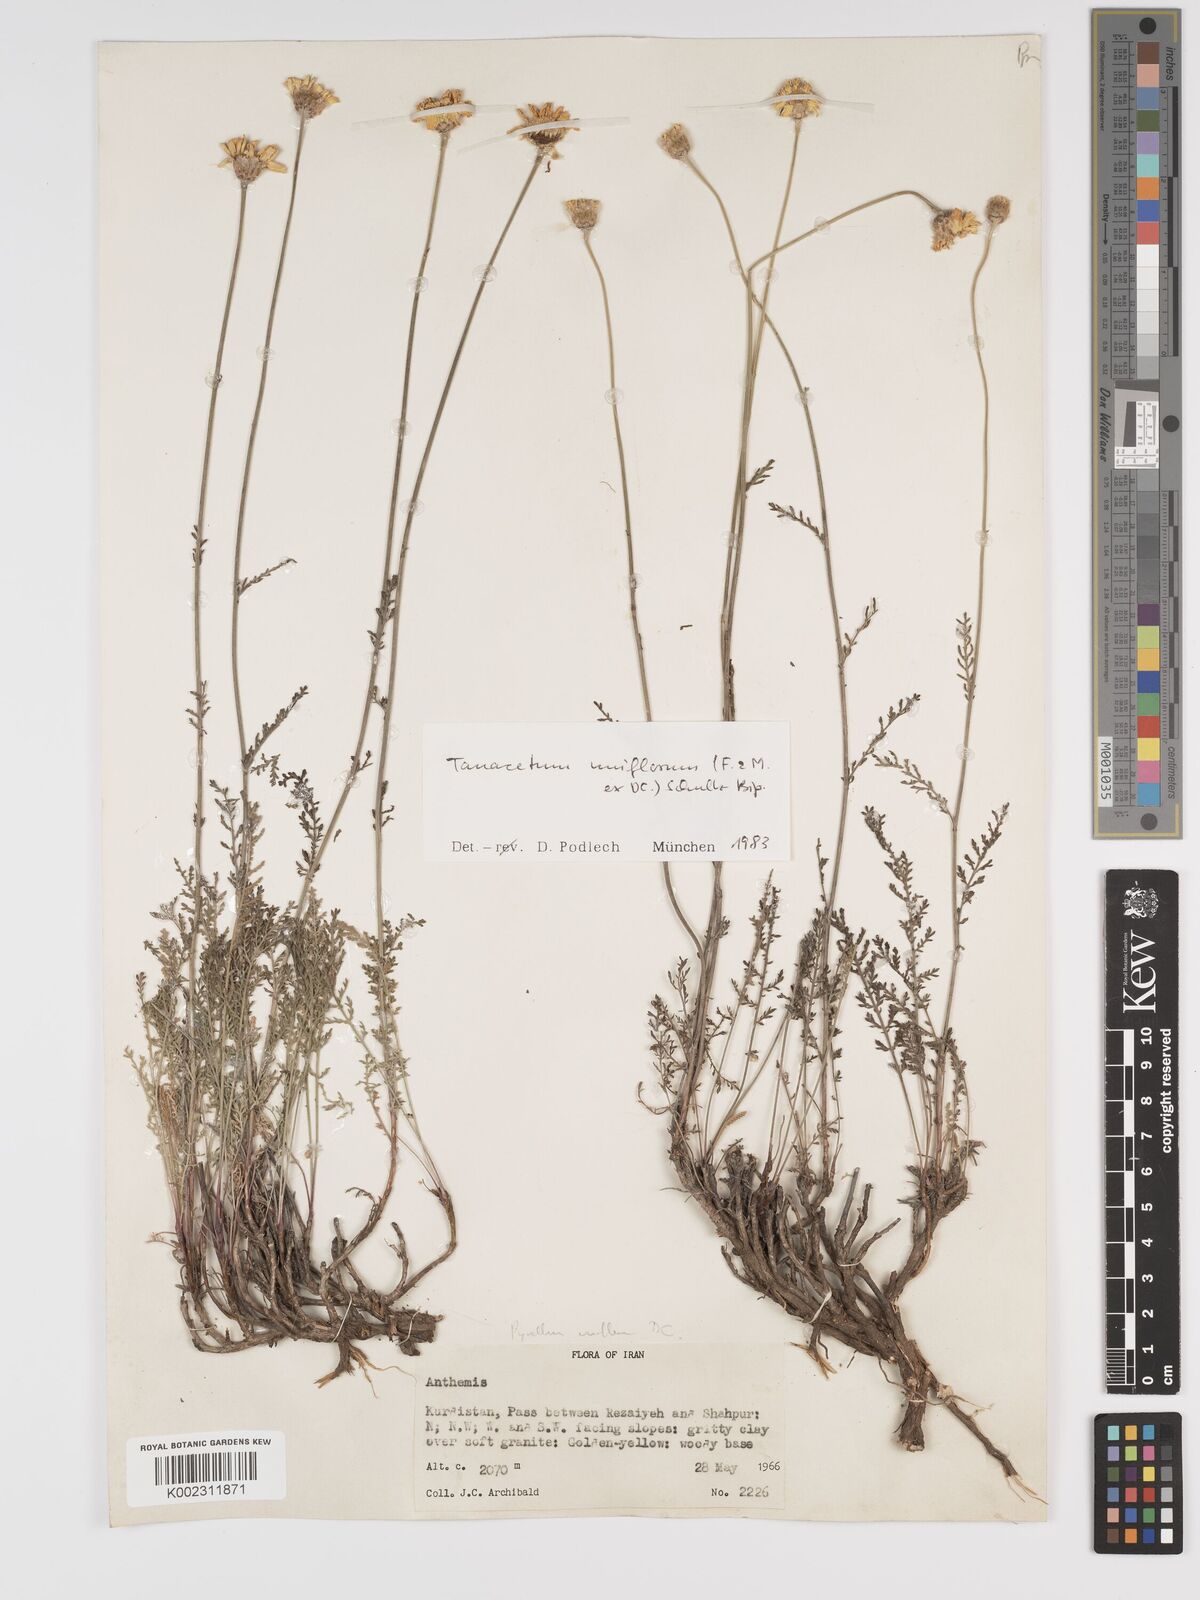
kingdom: Plantae
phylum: Tracheophyta
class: Magnoliopsida
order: Asterales
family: Asteraceae
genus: Tanacetum
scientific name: Tanacetum
